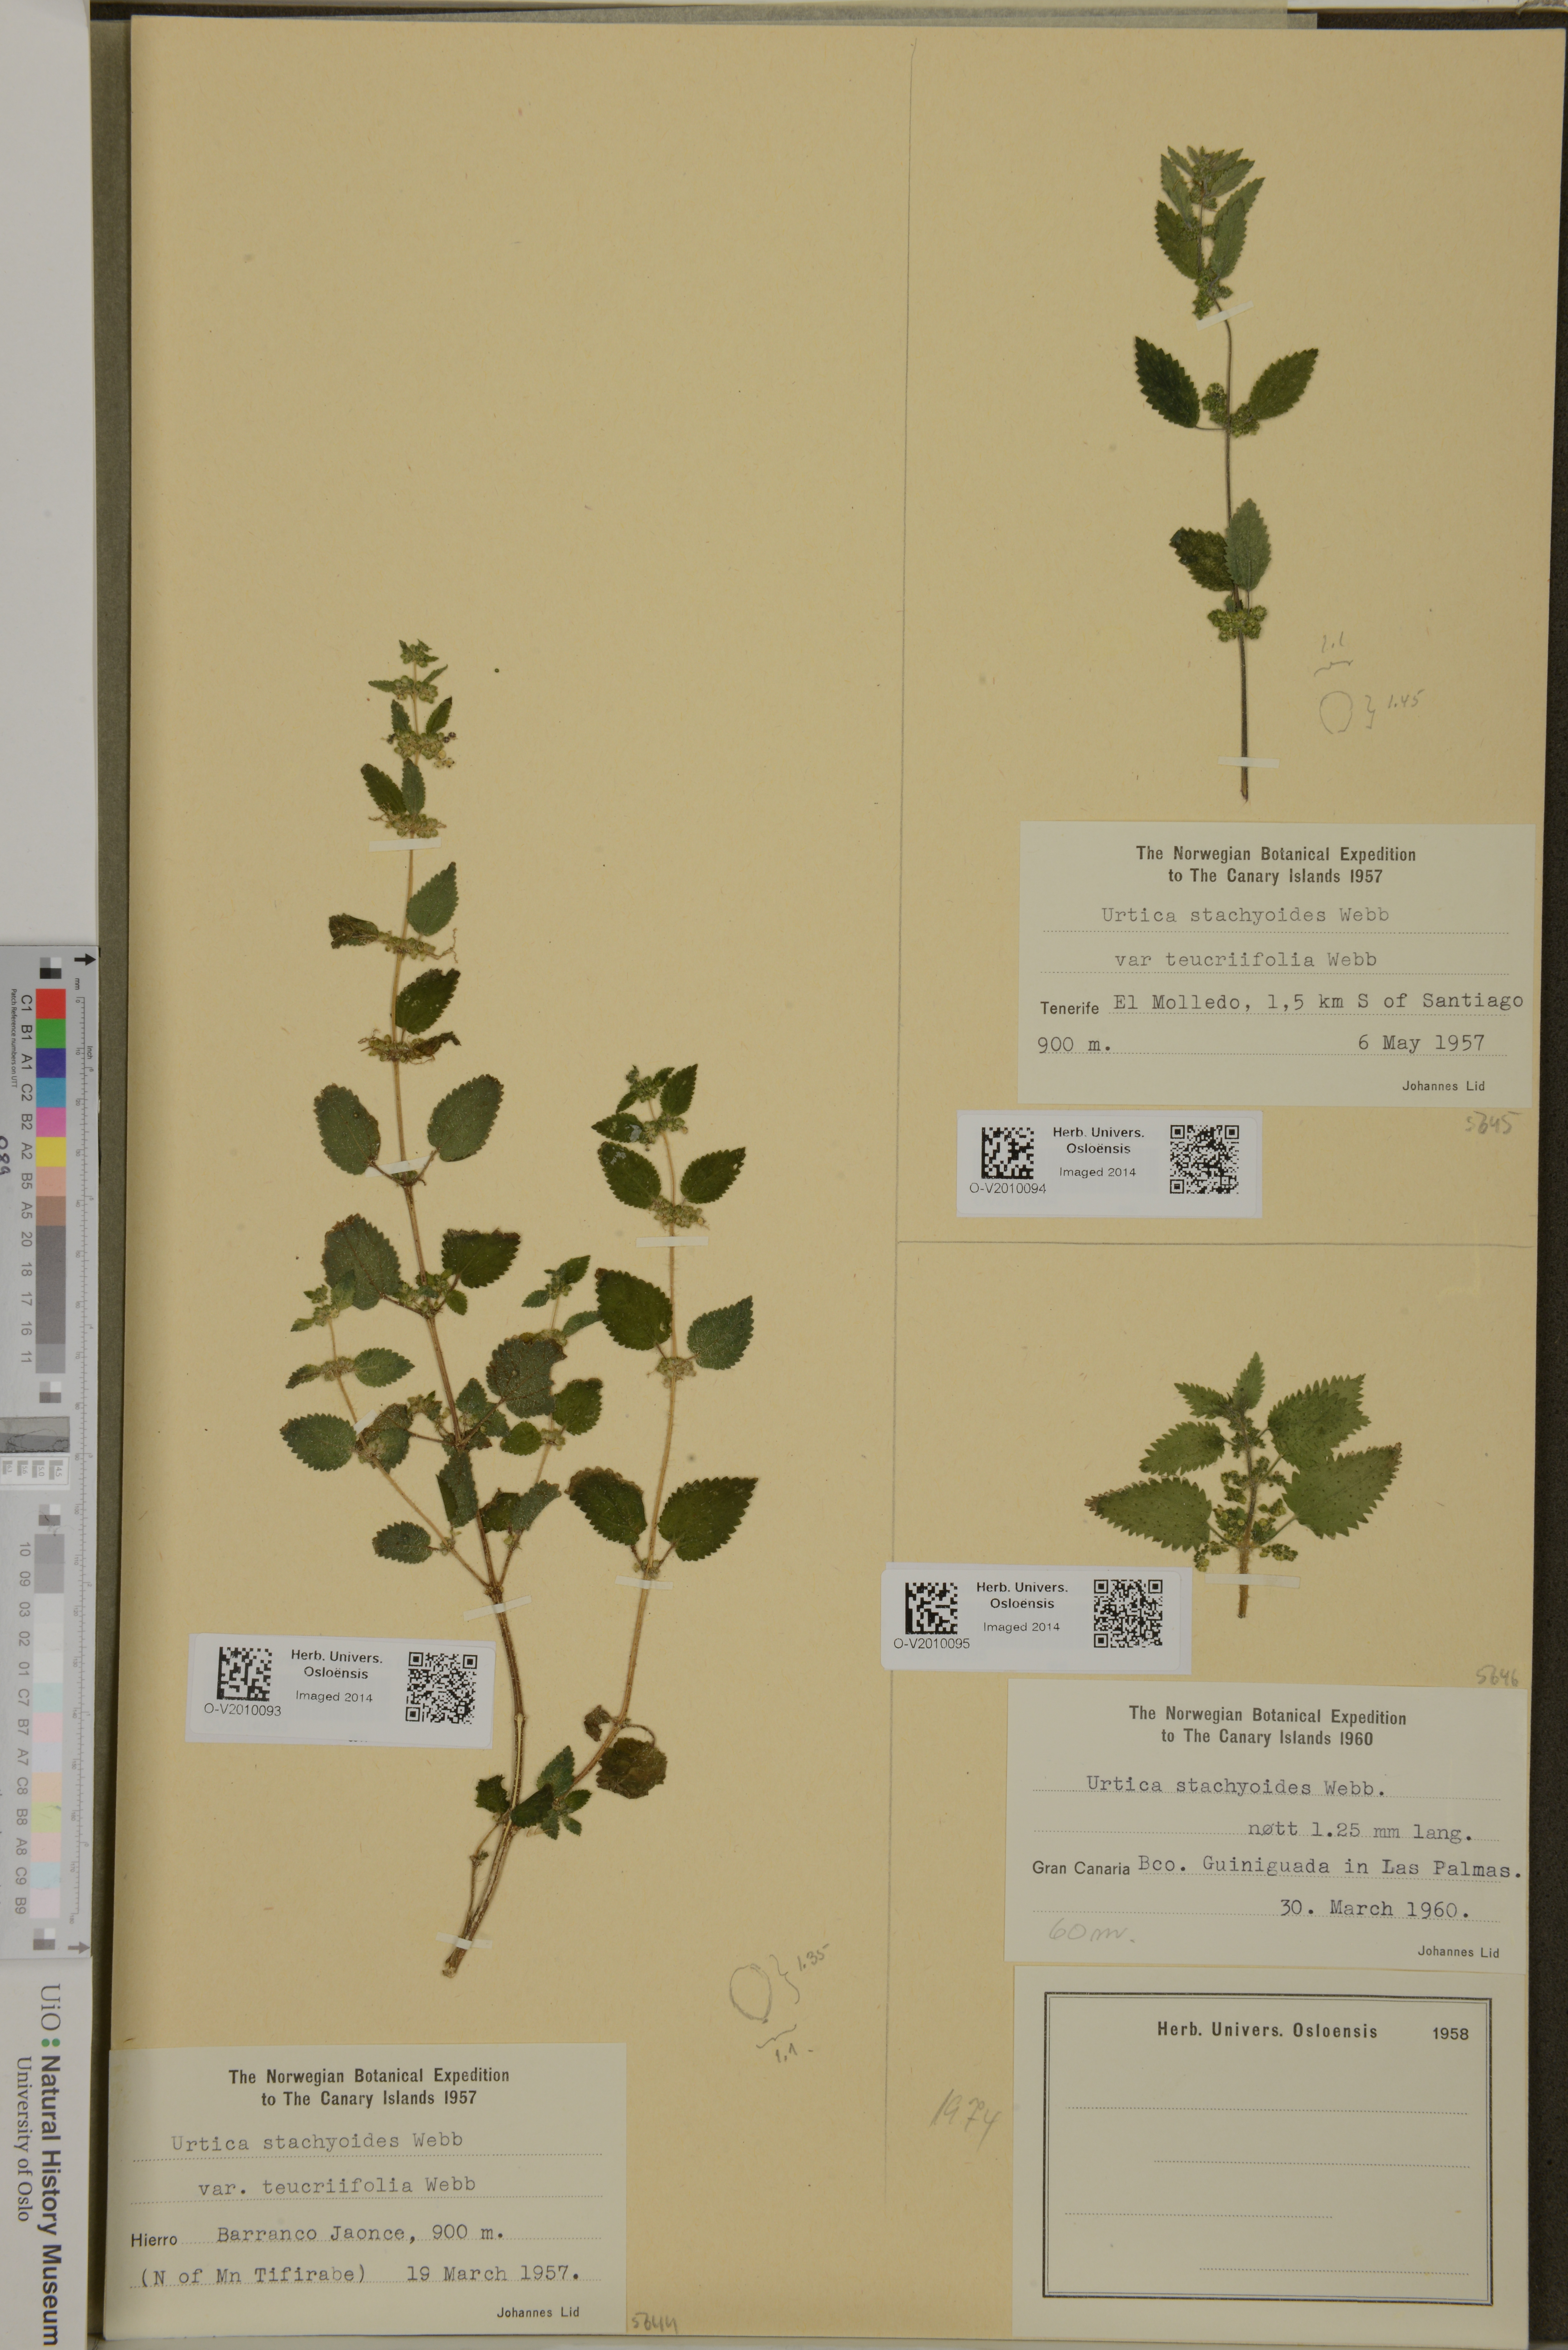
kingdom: Plantae
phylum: Tracheophyta
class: Magnoliopsida
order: Rosales
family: Urticaceae
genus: Urtica
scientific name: Urtica stachyoides
